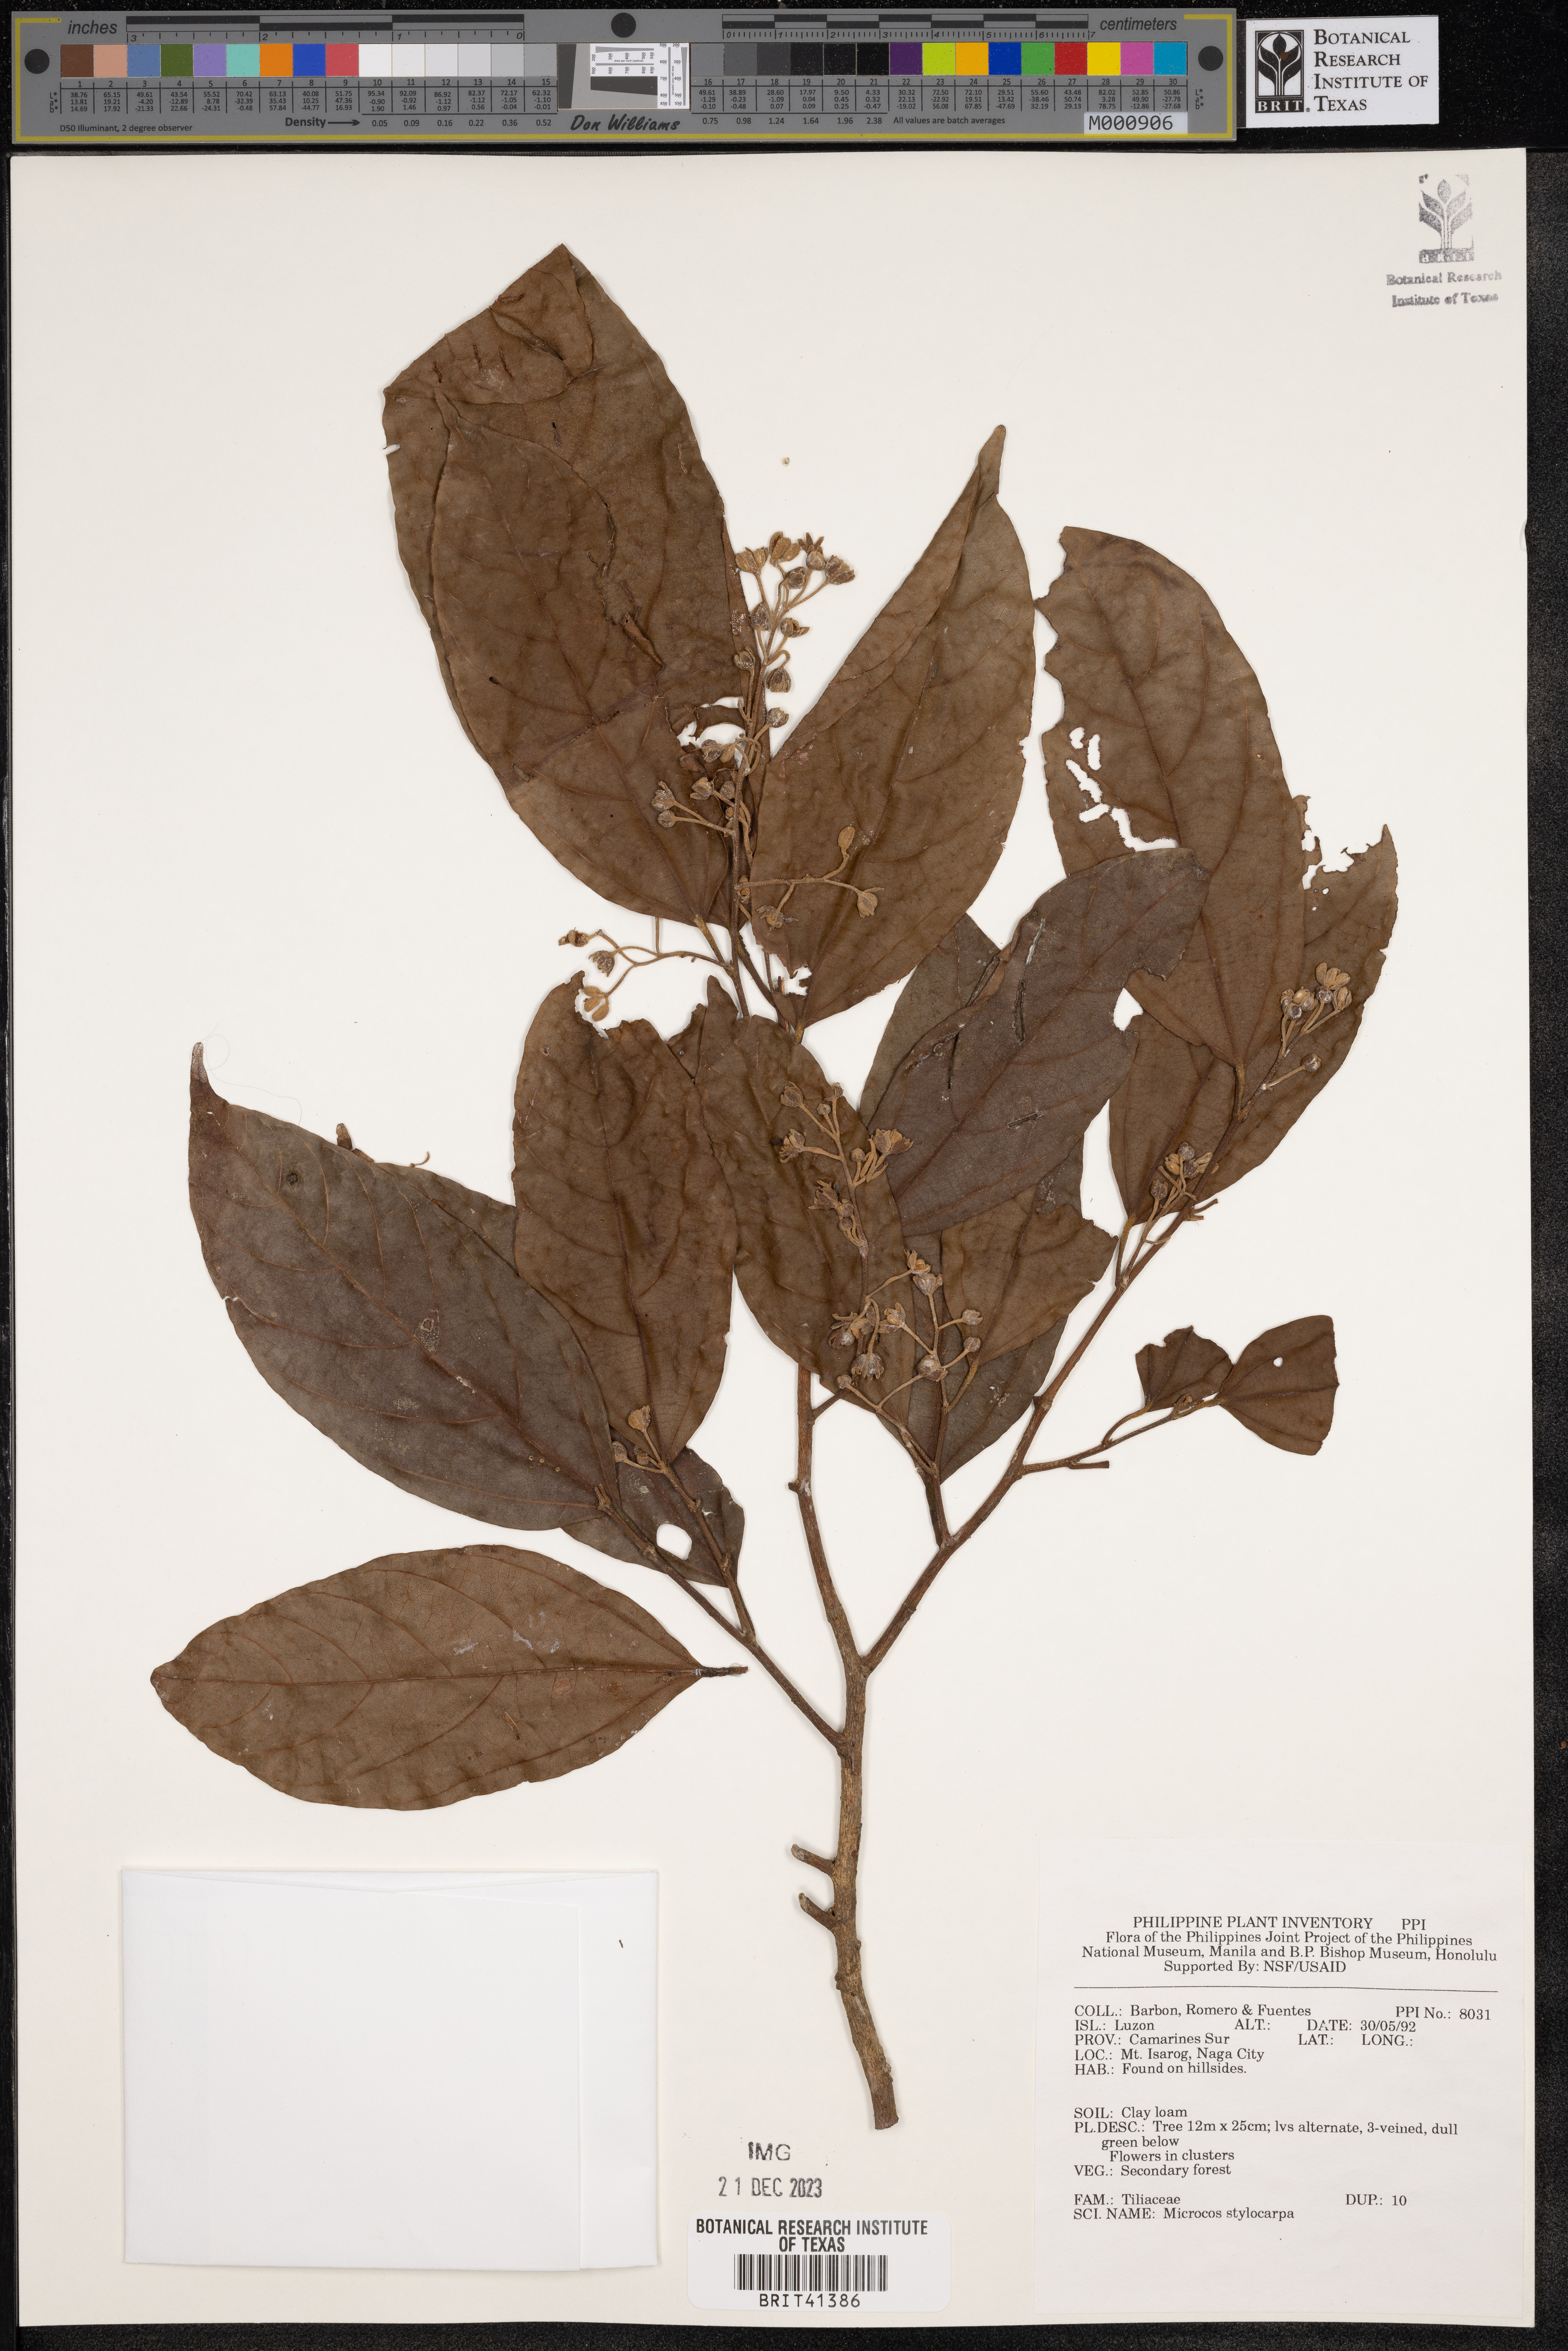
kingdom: Plantae
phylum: Tracheophyta
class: Magnoliopsida
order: Malvales
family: Malvaceae
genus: Microcos
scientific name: Microcos triflora
